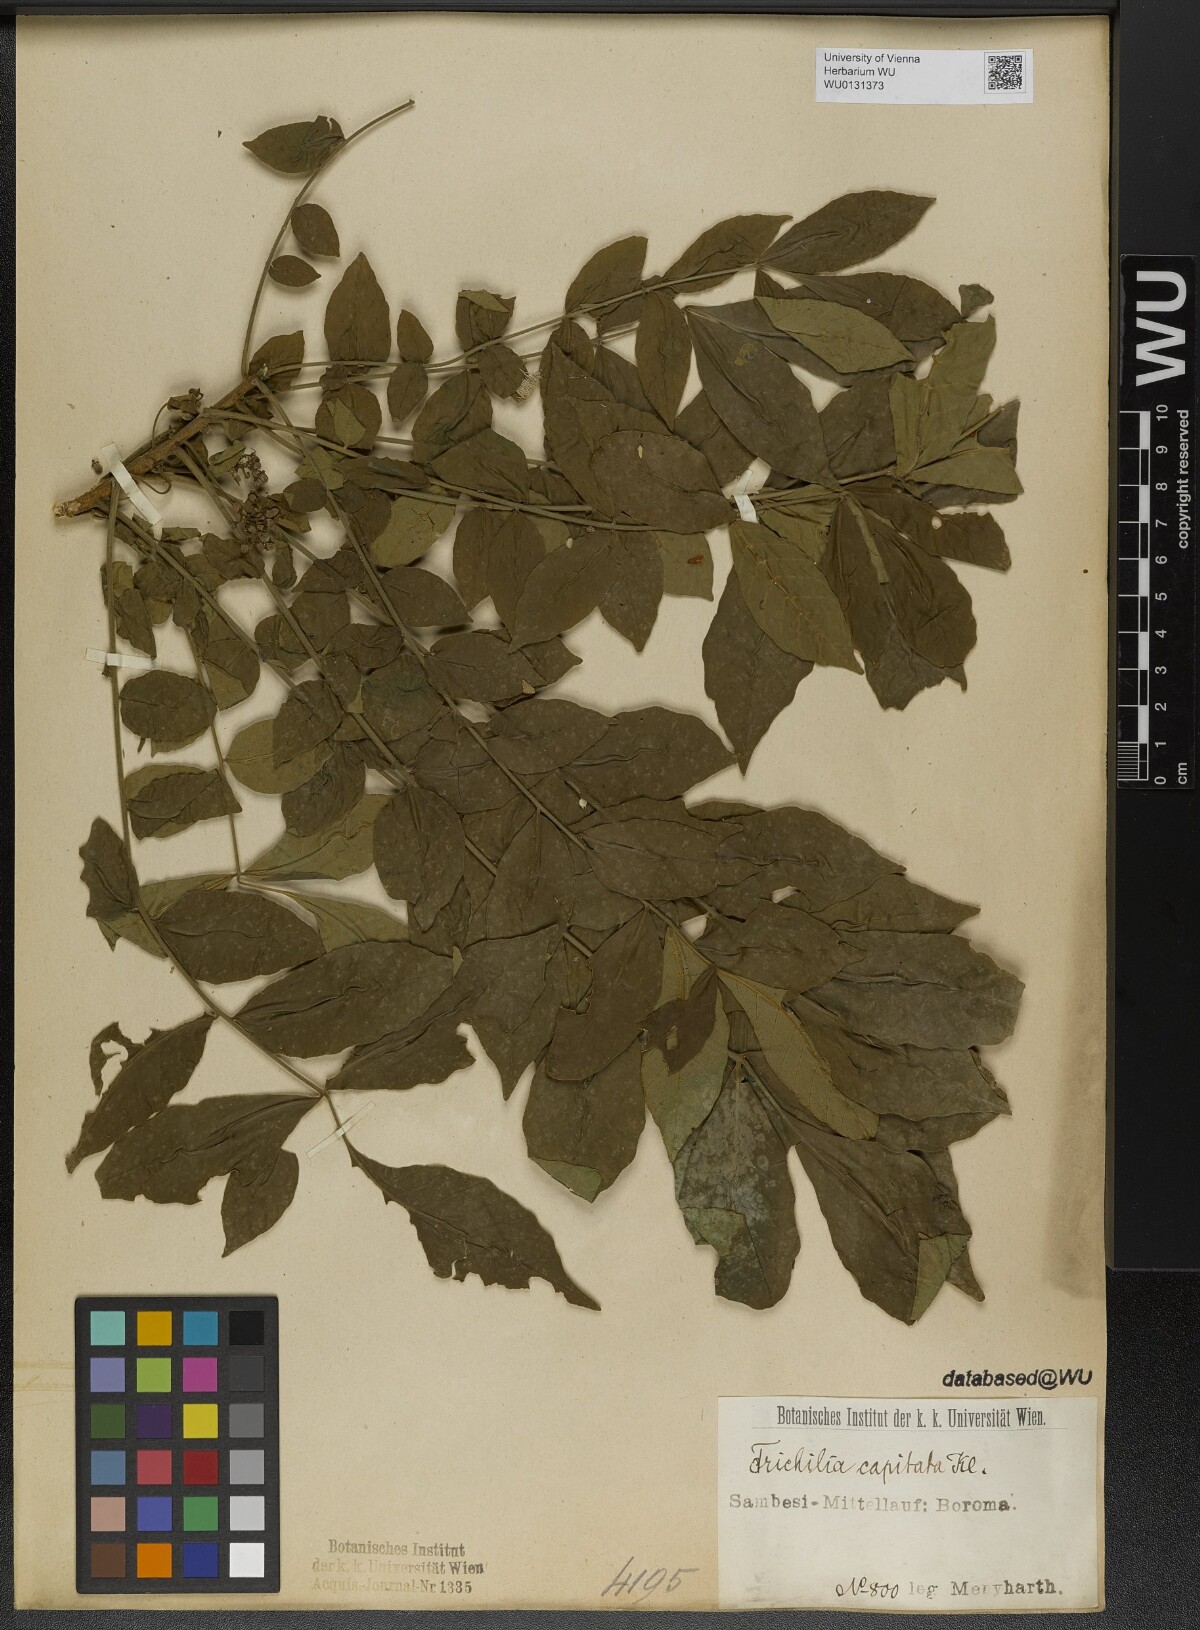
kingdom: Plantae
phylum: Tracheophyta
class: Magnoliopsida
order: Sapindales
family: Meliaceae
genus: Trichilia
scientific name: Trichilia capitata
